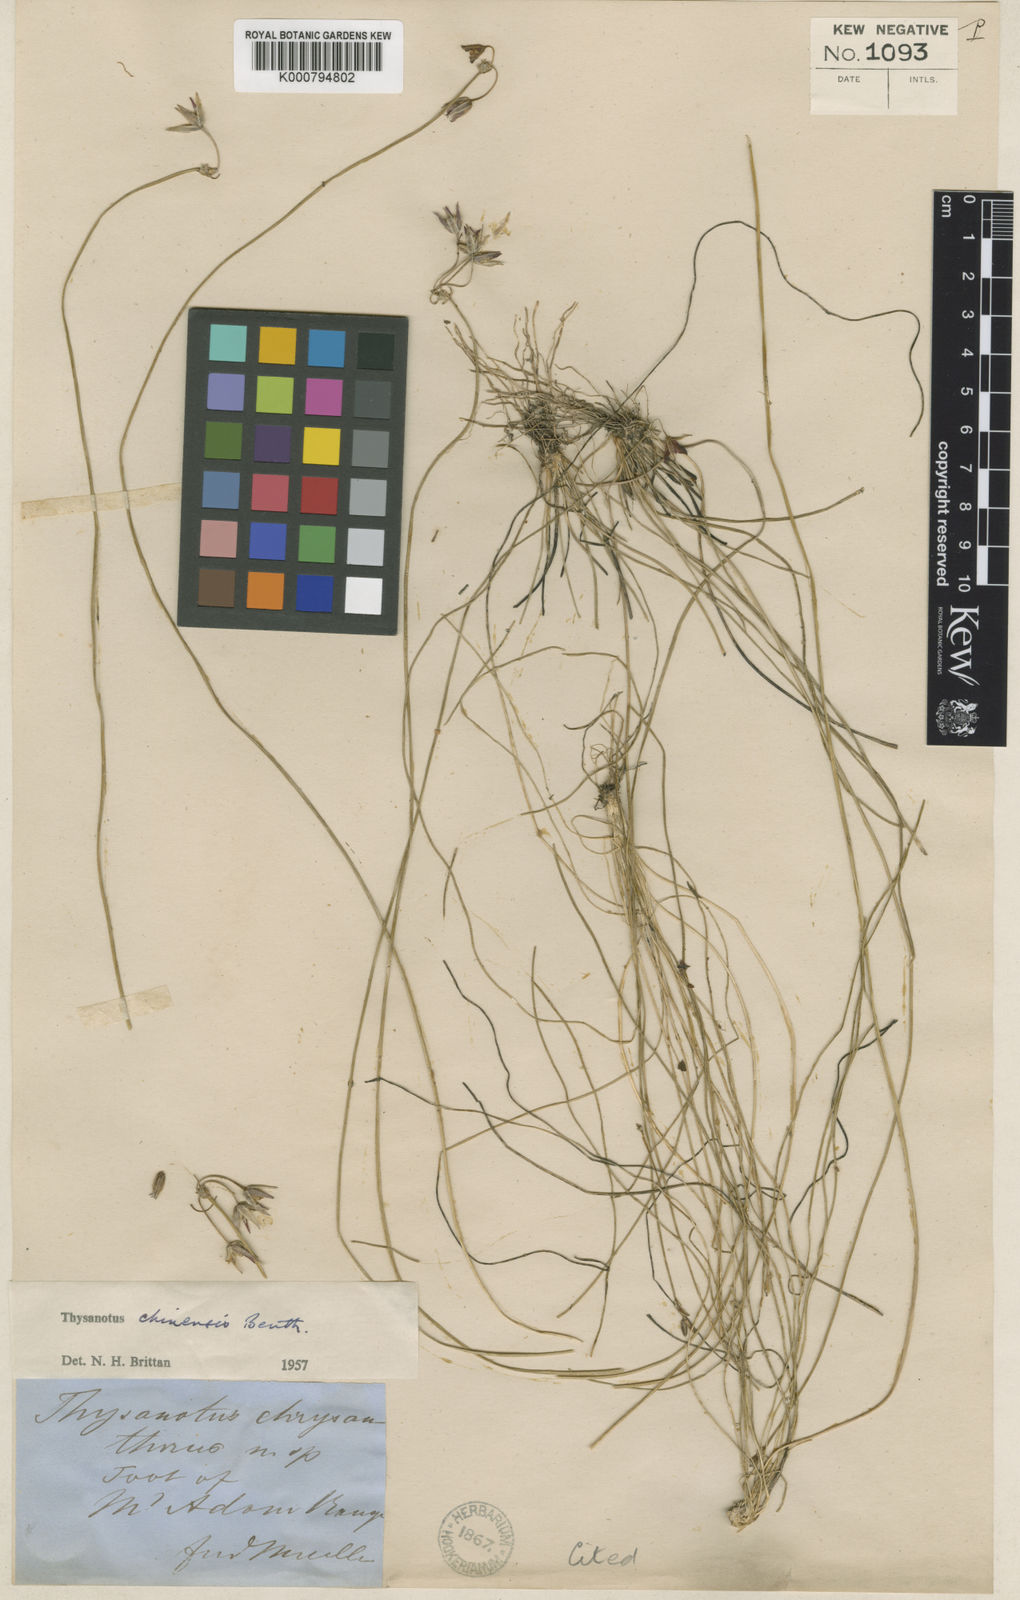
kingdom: Plantae
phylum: Tracheophyta
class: Liliopsida
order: Asparagales
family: Asparagaceae
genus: Thysanotus
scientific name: Thysanotus chinensis
